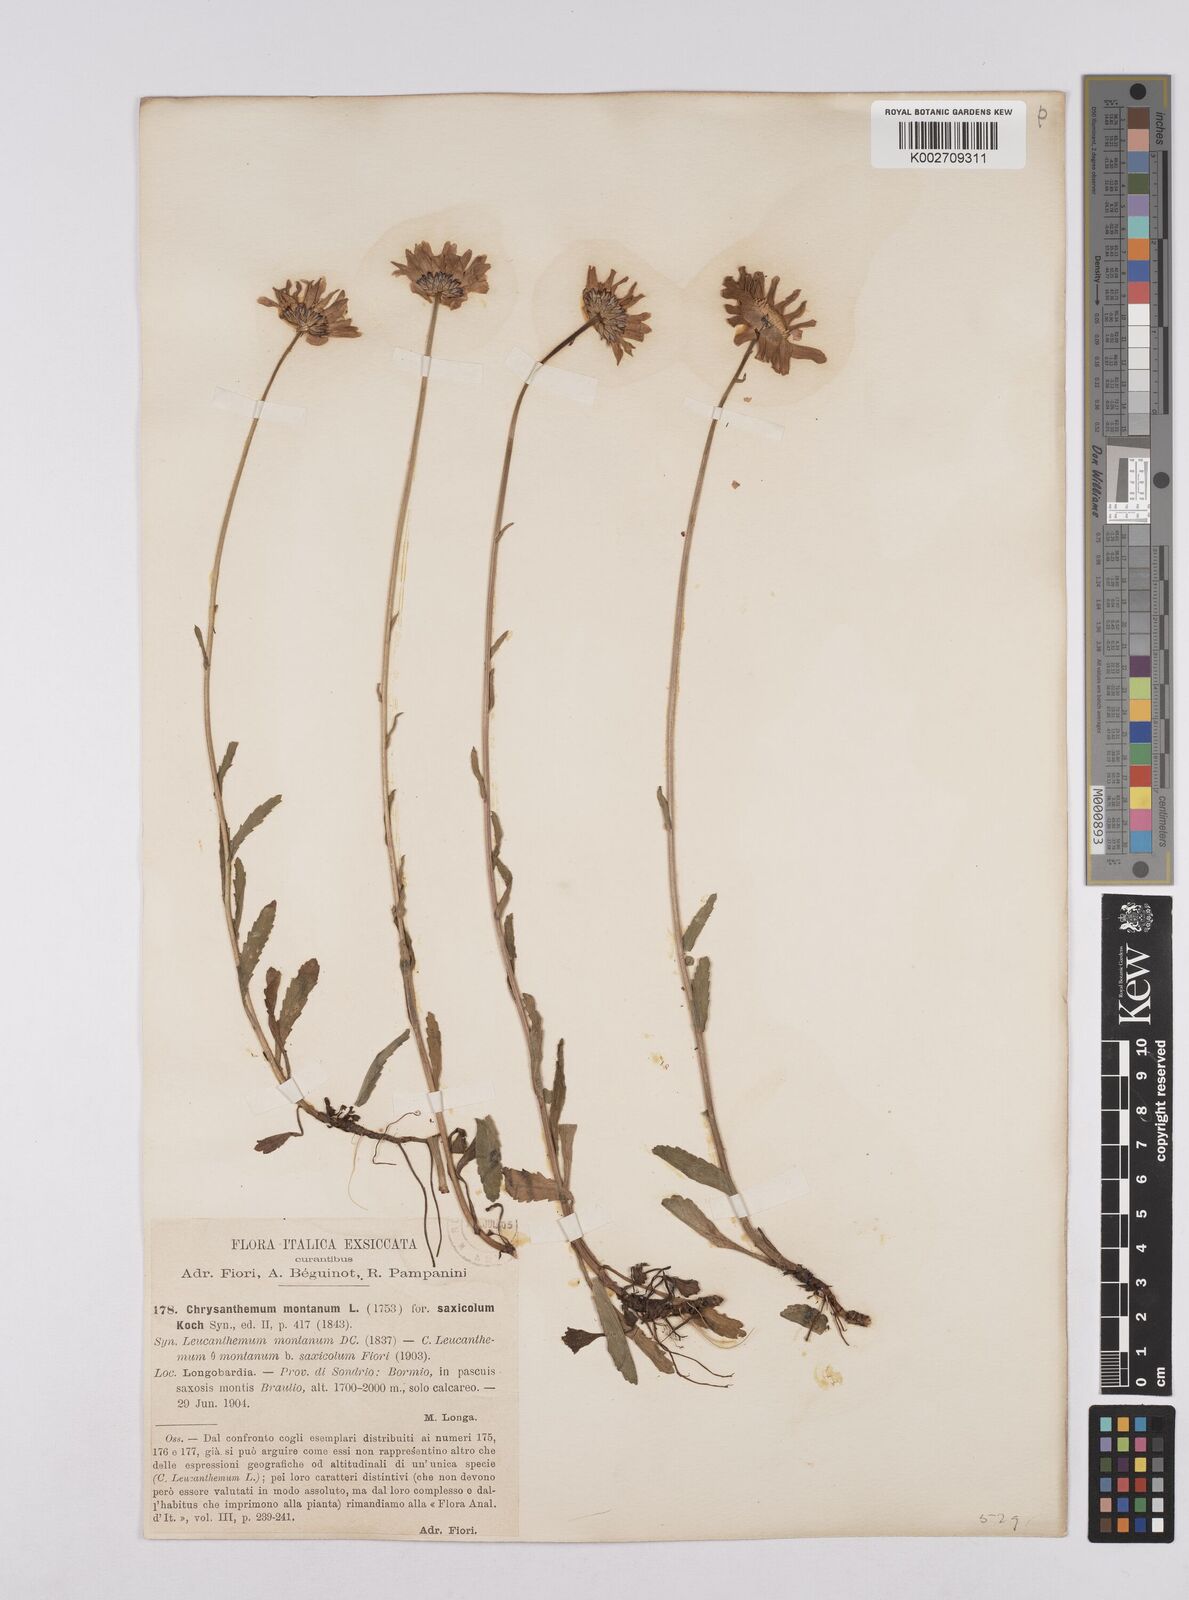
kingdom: Plantae
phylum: Tracheophyta
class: Magnoliopsida
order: Asterales
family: Asteraceae
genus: Leucanthemum
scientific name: Leucanthemum chloroticum
